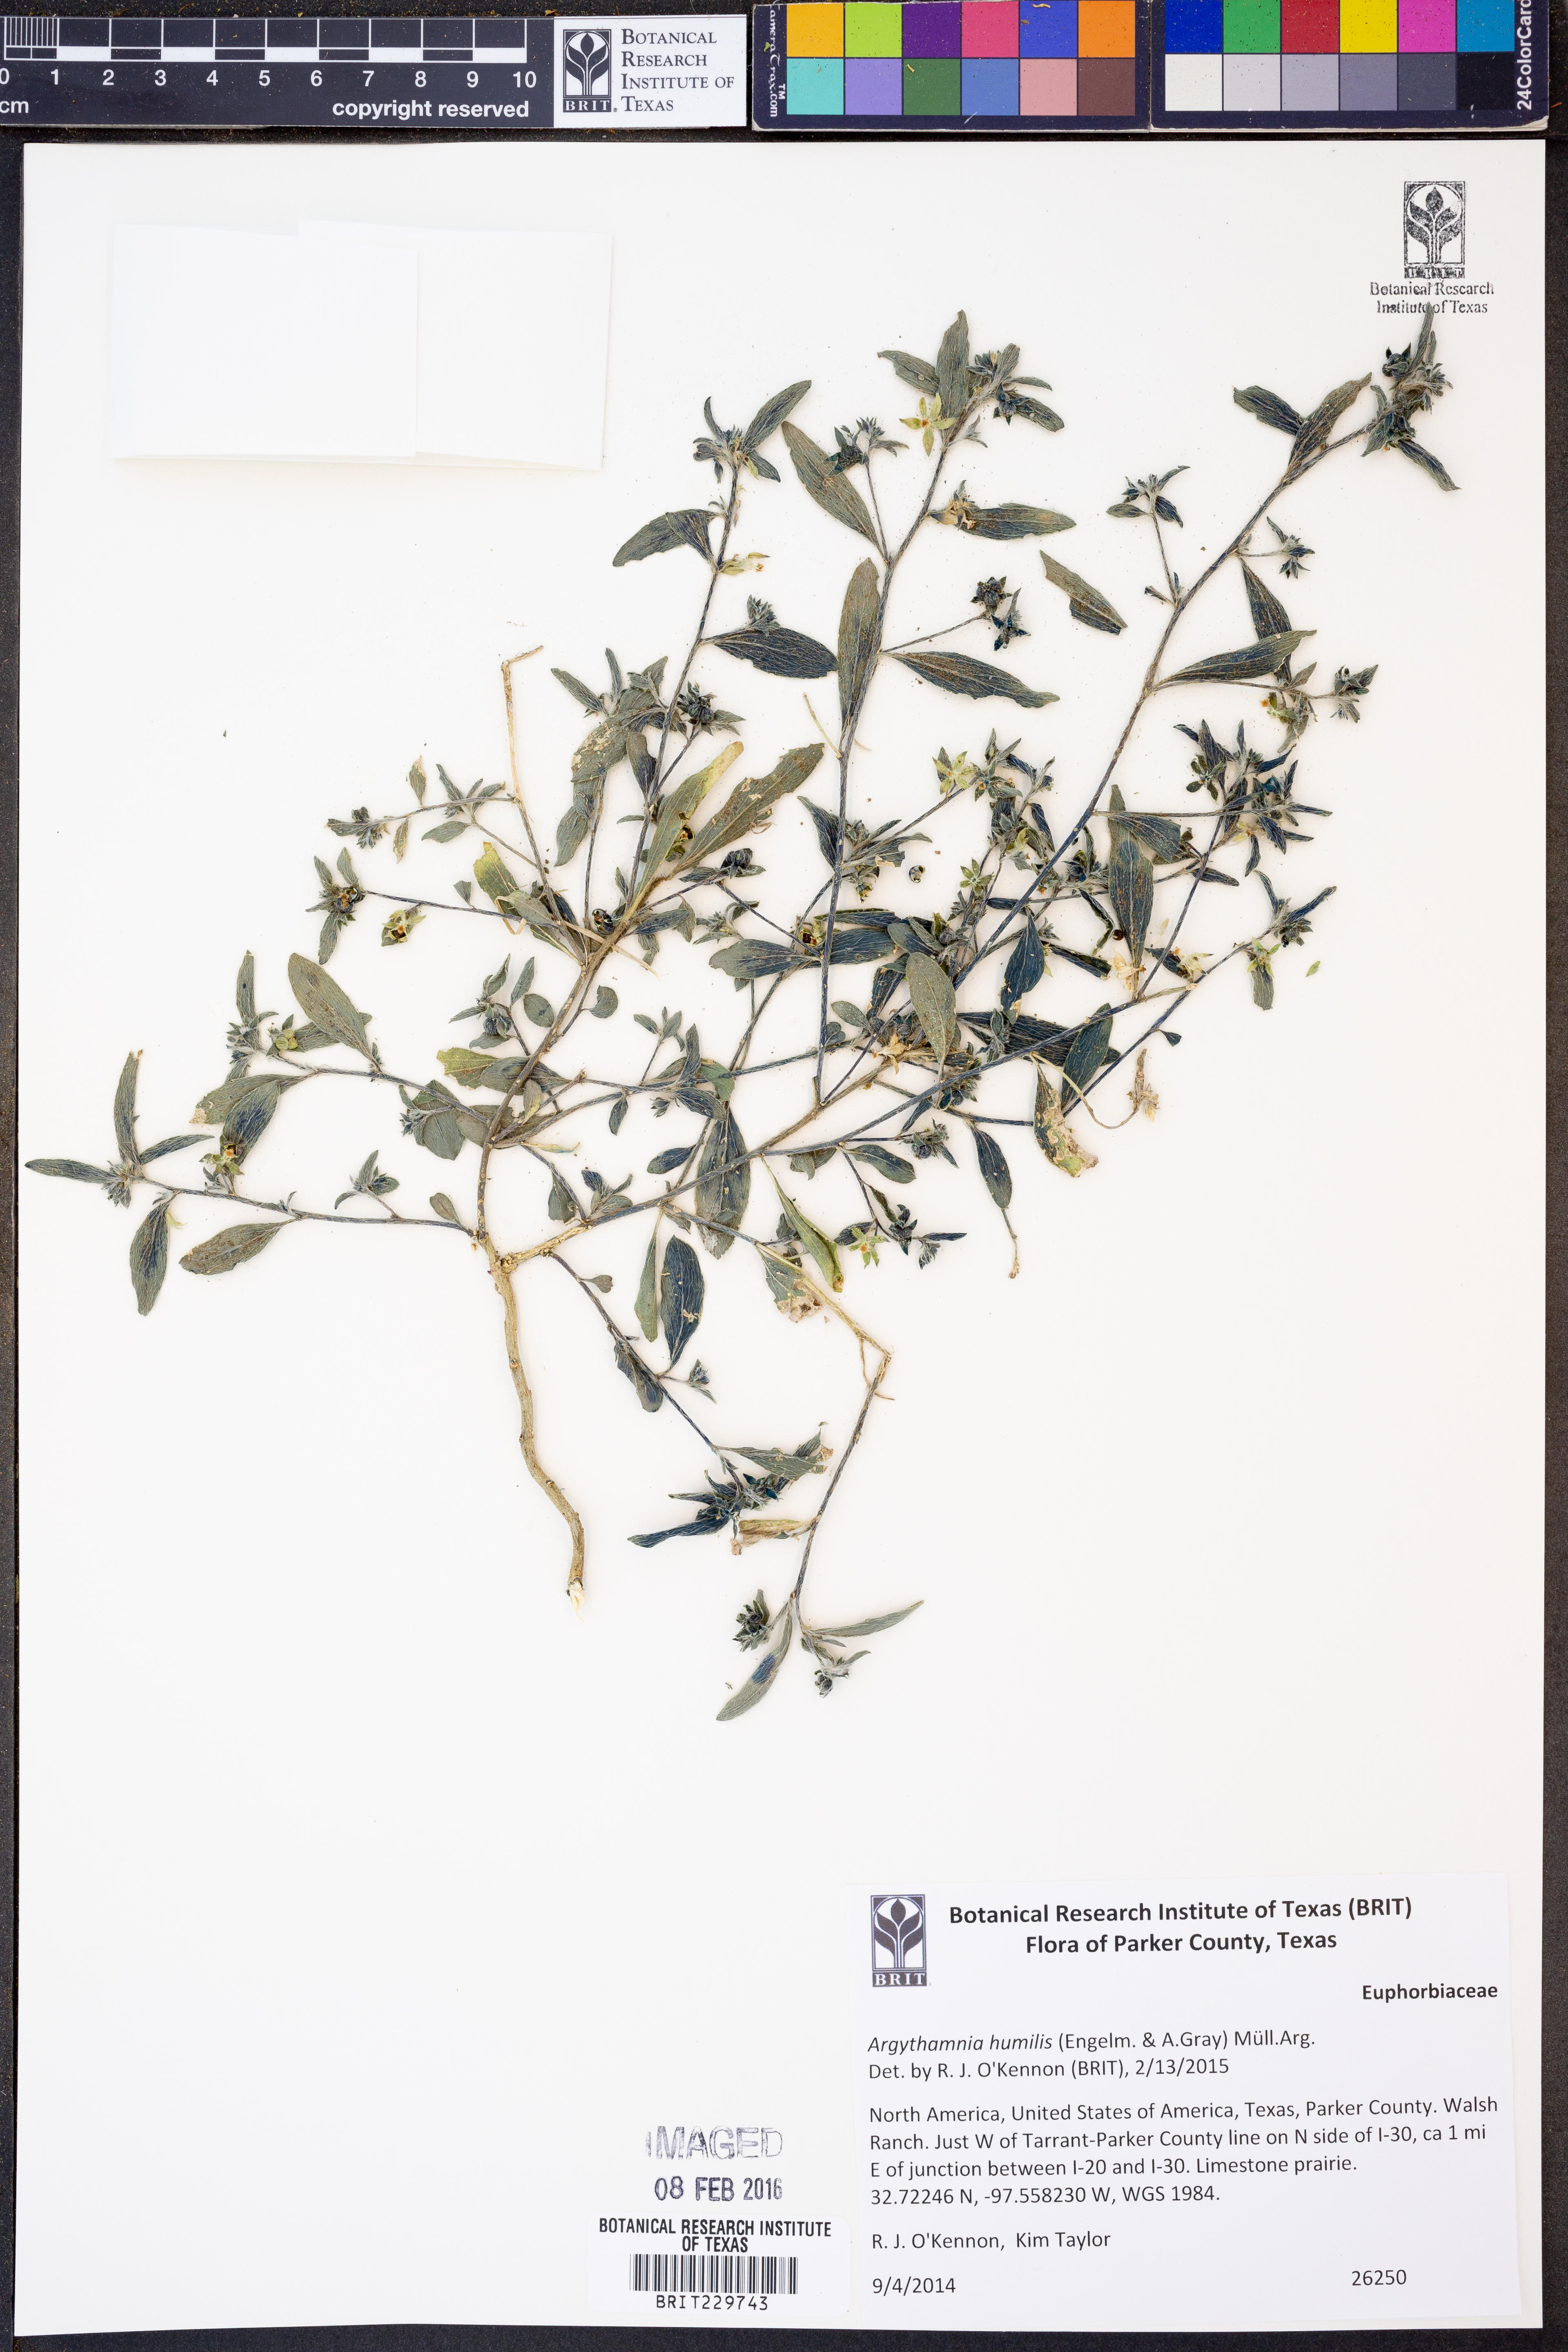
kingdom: Plantae
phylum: Tracheophyta
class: Magnoliopsida
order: Malpighiales
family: Euphorbiaceae
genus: Ditaxis
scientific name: Ditaxis humilis
